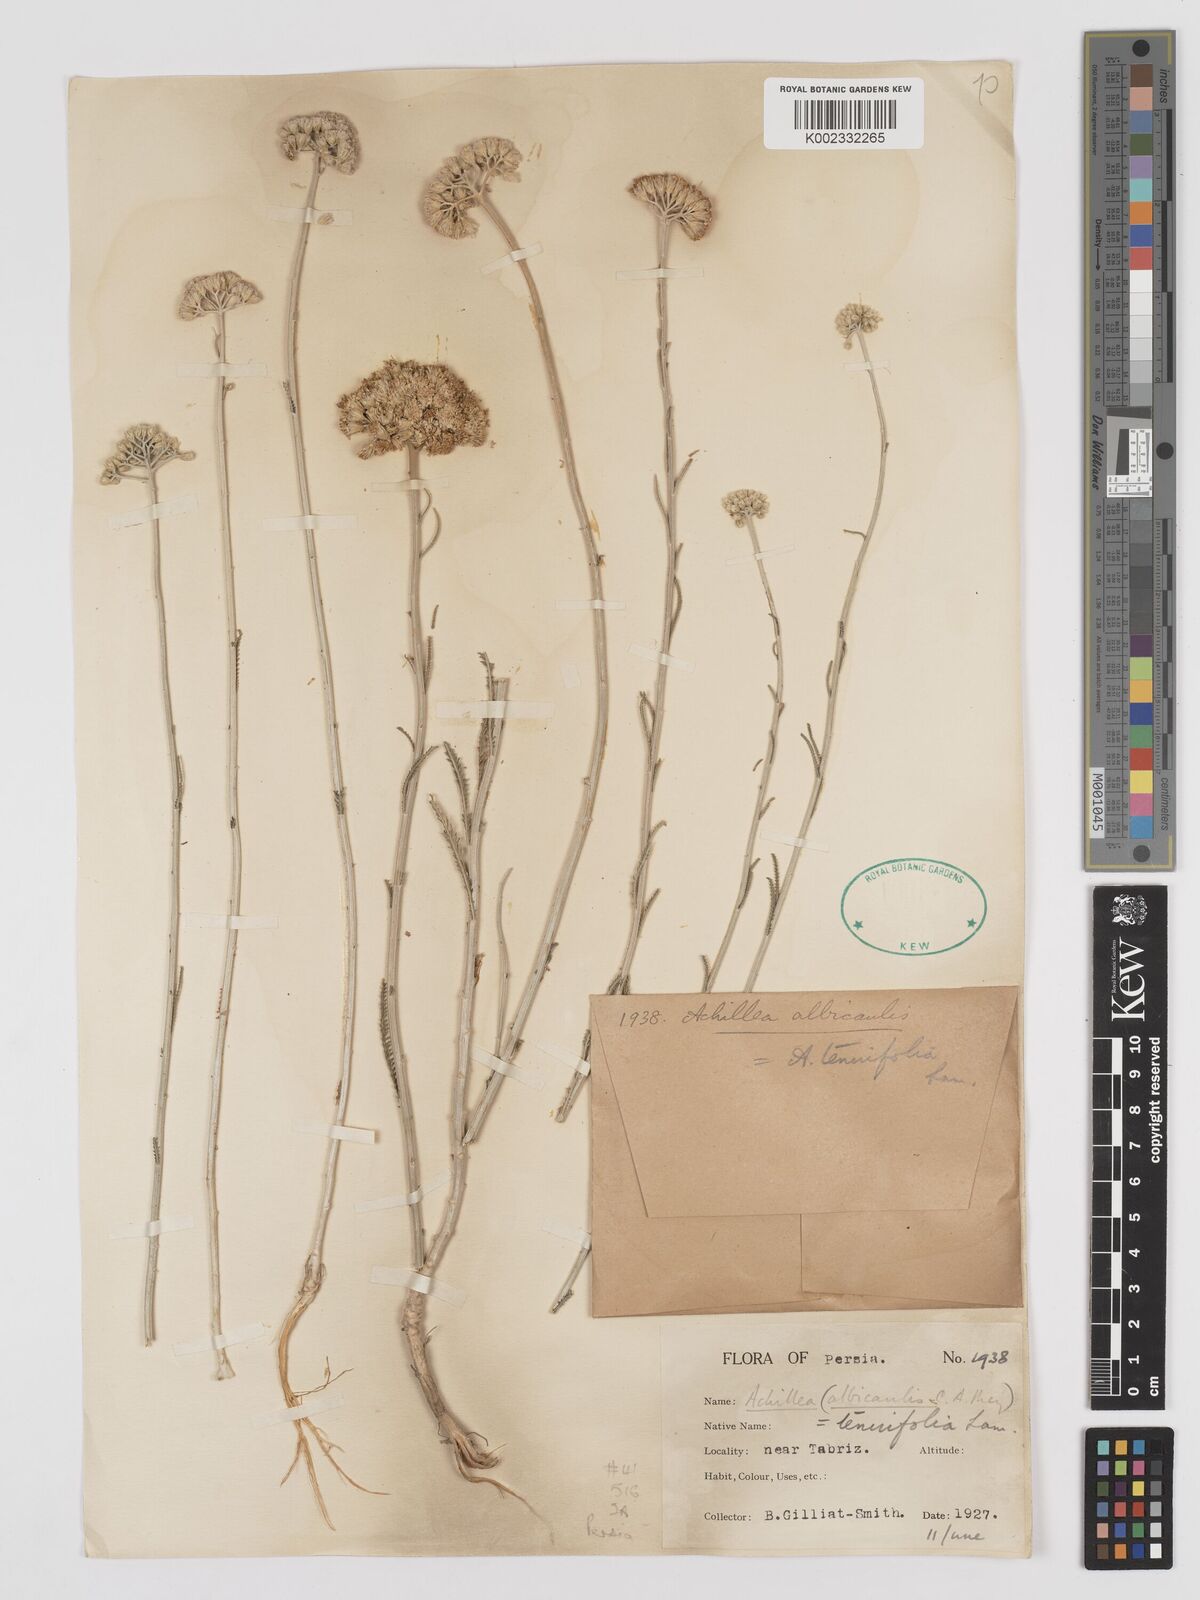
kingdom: Plantae
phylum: Tracheophyta
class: Magnoliopsida
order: Asterales
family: Asteraceae
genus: Achillea
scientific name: Achillea tenuifolia
